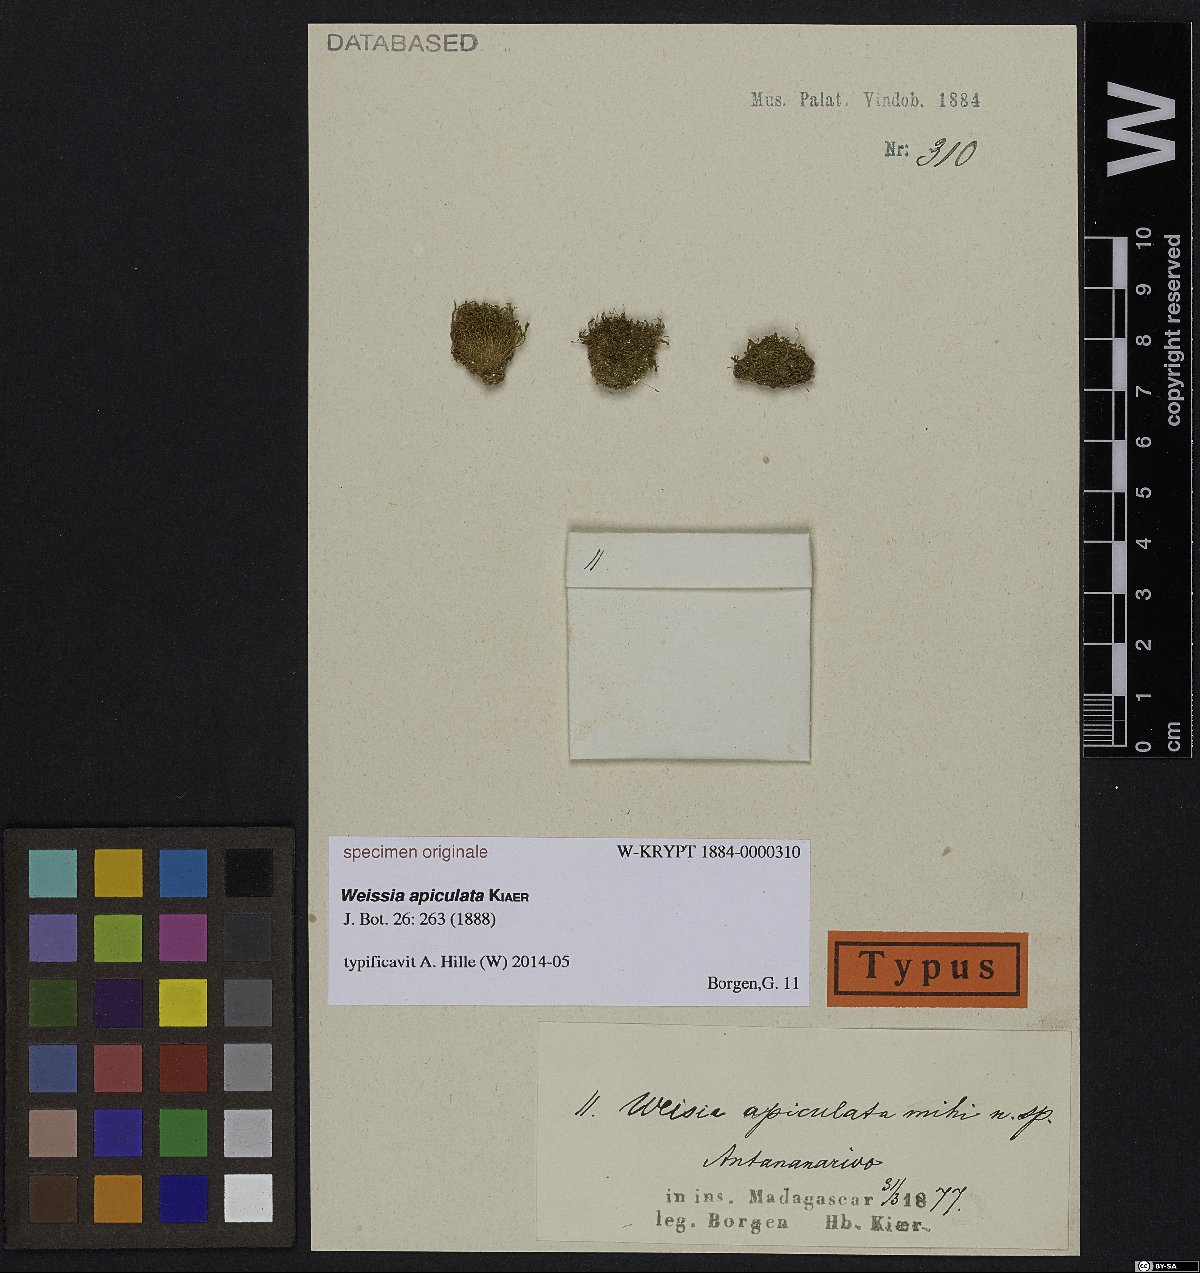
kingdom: Plantae
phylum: Bryophyta
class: Bryopsida
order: Pottiales
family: Pottiaceae
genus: Weissia
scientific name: Weissia rutilans
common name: Pointed-leaved stubble-moss
